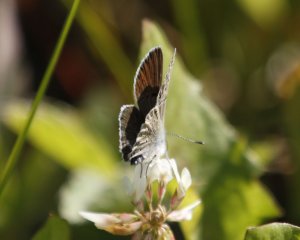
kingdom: Animalia
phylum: Arthropoda
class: Insecta
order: Lepidoptera
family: Lycaenidae
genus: Plebejus
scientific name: Plebejus saepiolus
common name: Greenish Blue
